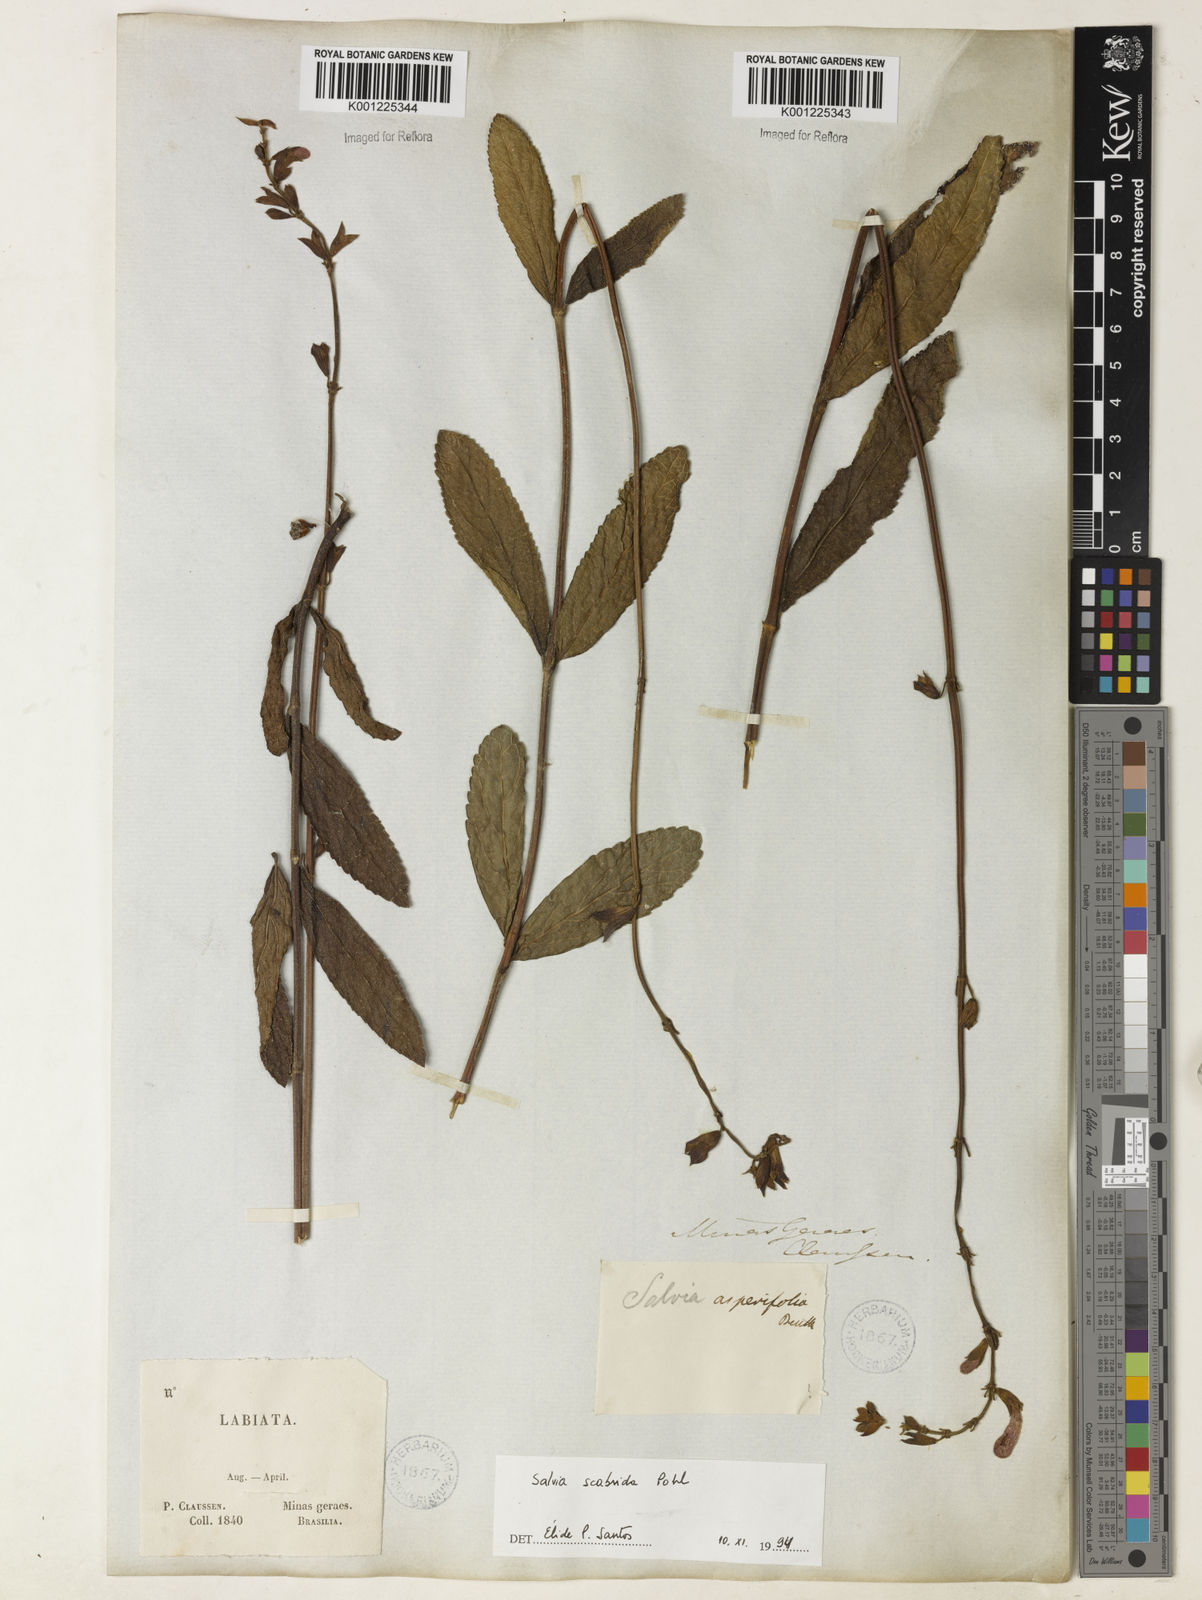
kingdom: Plantae
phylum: Tracheophyta
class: Magnoliopsida
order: Lamiales
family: Lamiaceae
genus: Salvia
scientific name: Salvia scabrida
